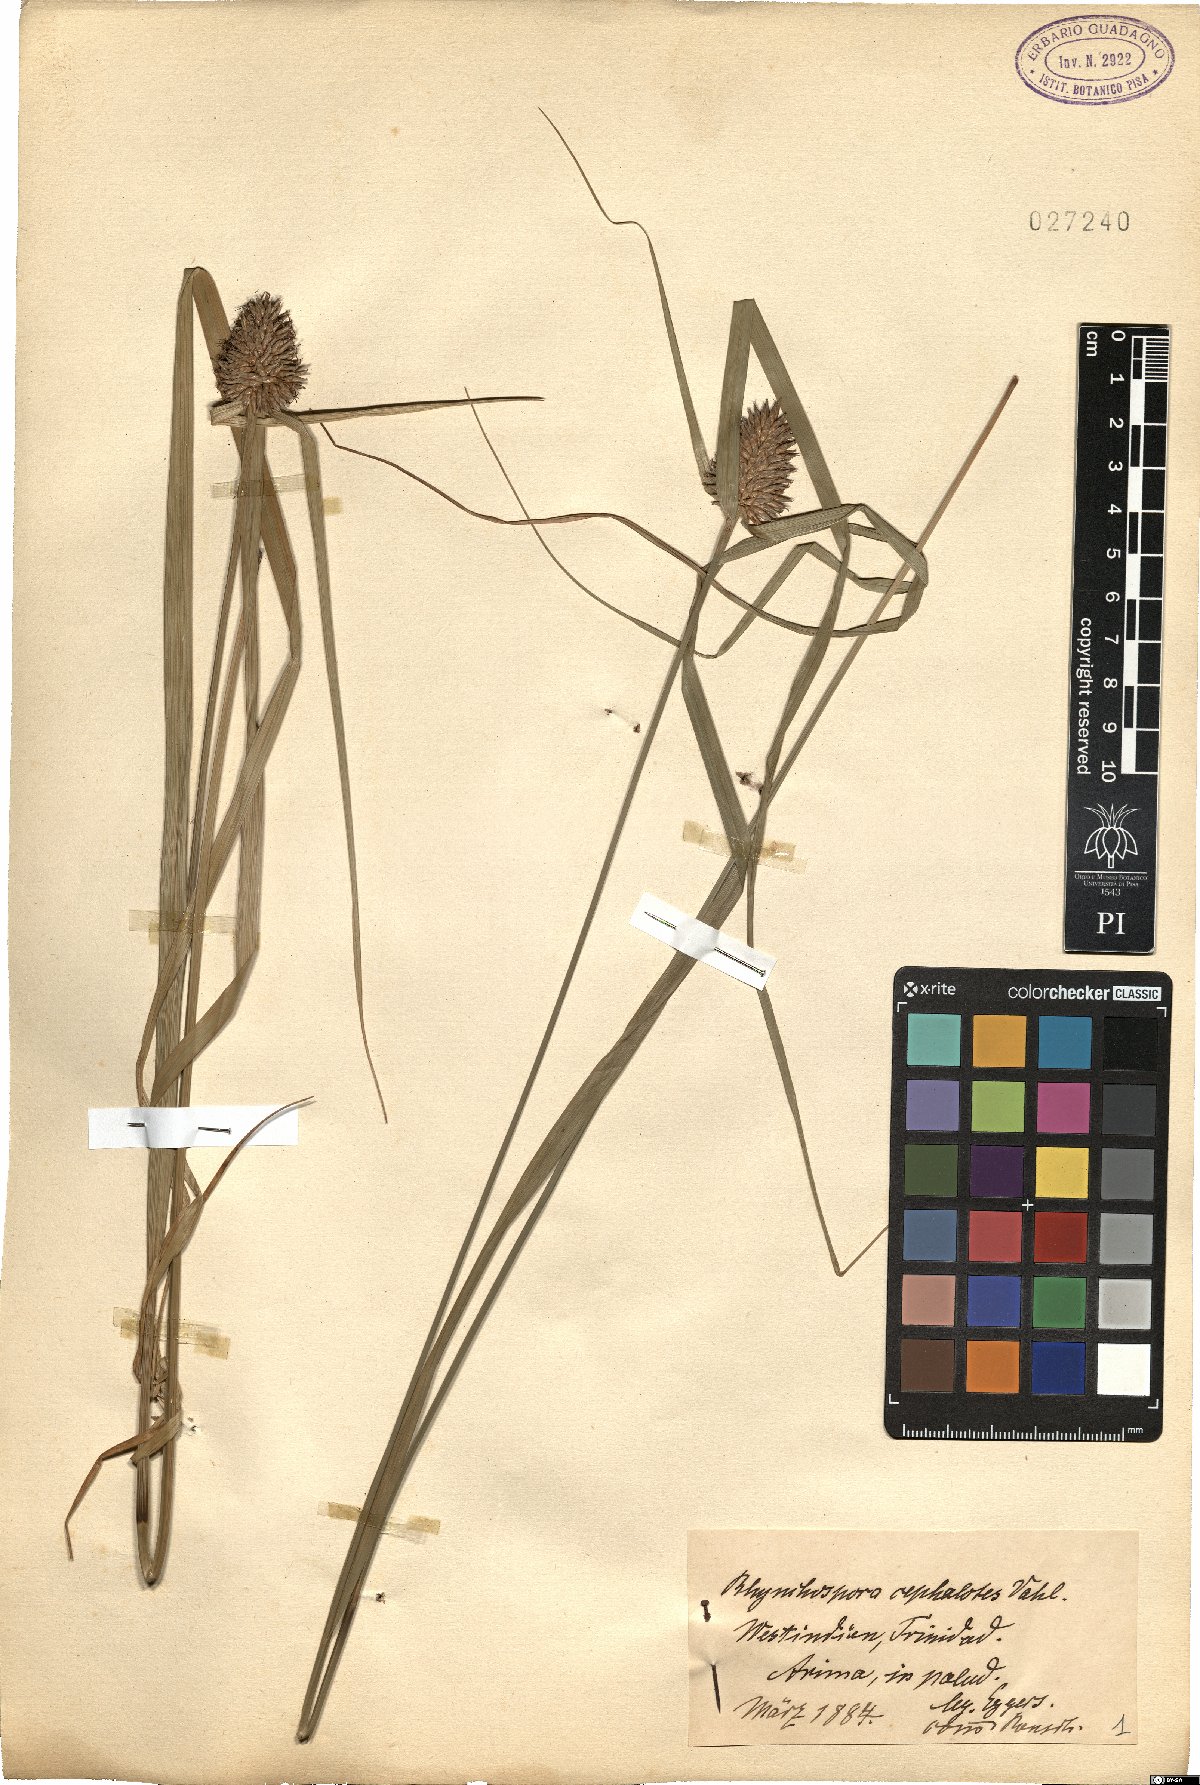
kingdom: Plantae
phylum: Tracheophyta
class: Liliopsida
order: Poales
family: Cyperaceae
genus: Rhynchospora
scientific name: Rhynchospora cephalotes
